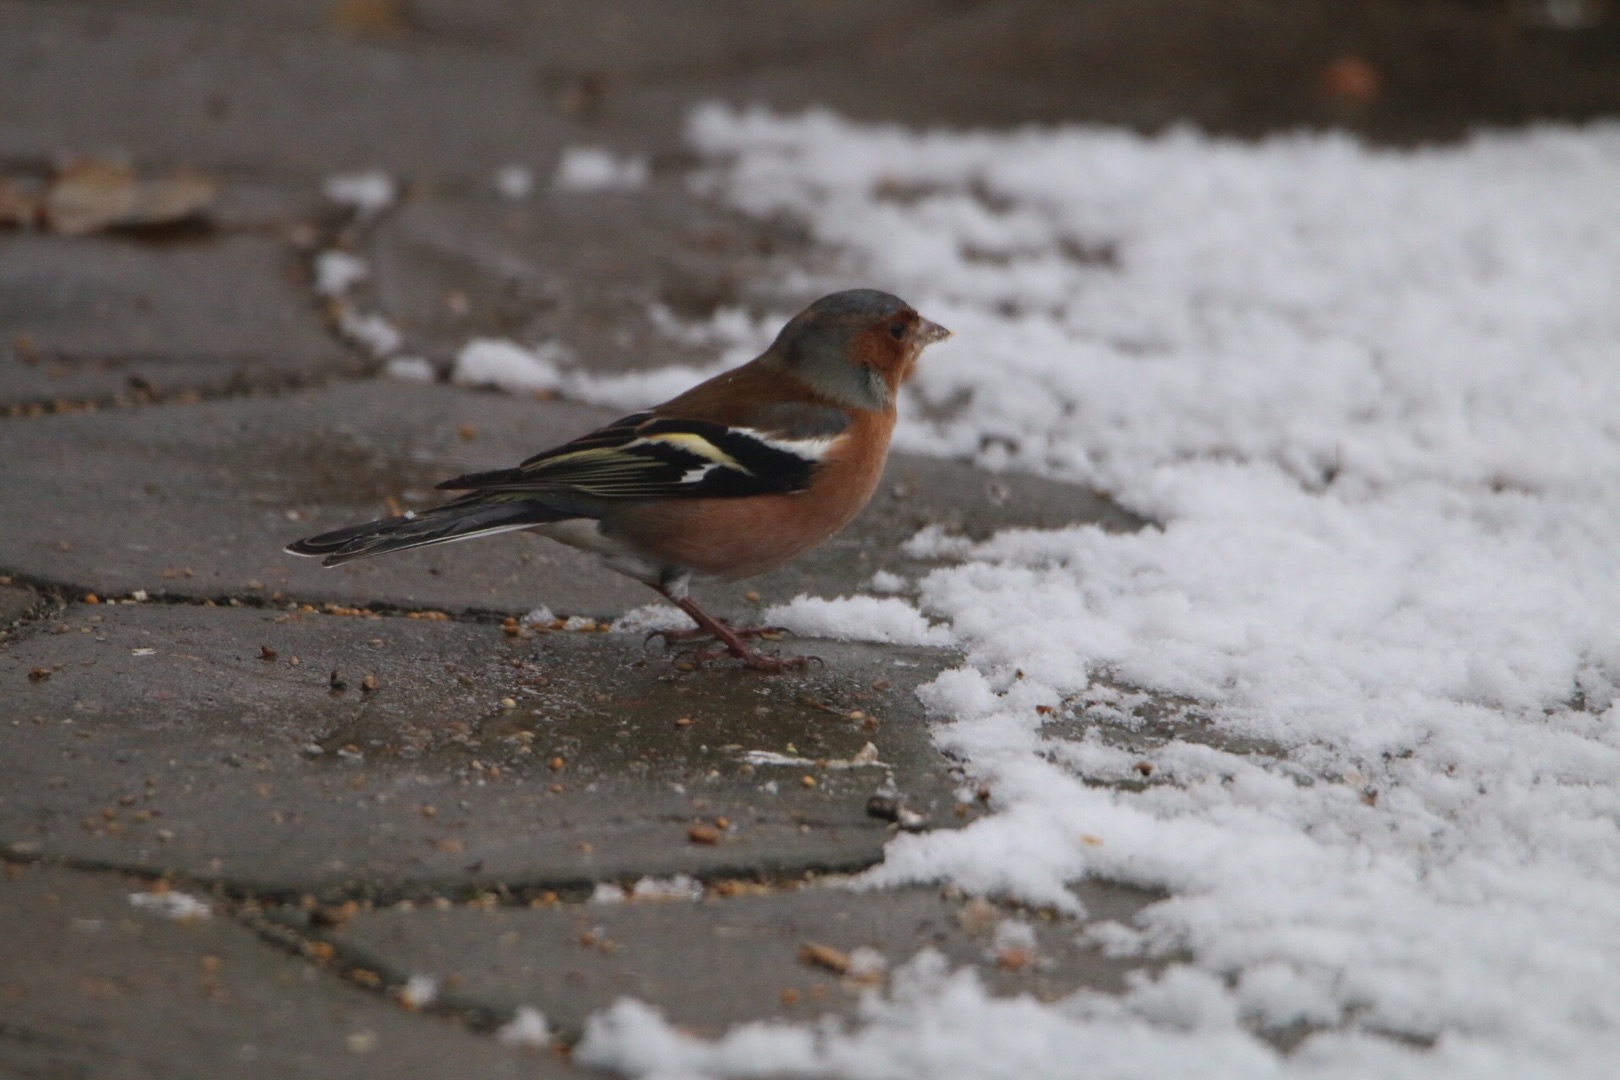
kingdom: Animalia
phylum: Chordata
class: Aves
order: Passeriformes
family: Fringillidae
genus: Fringilla
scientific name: Fringilla coelebs
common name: Bogfinke
